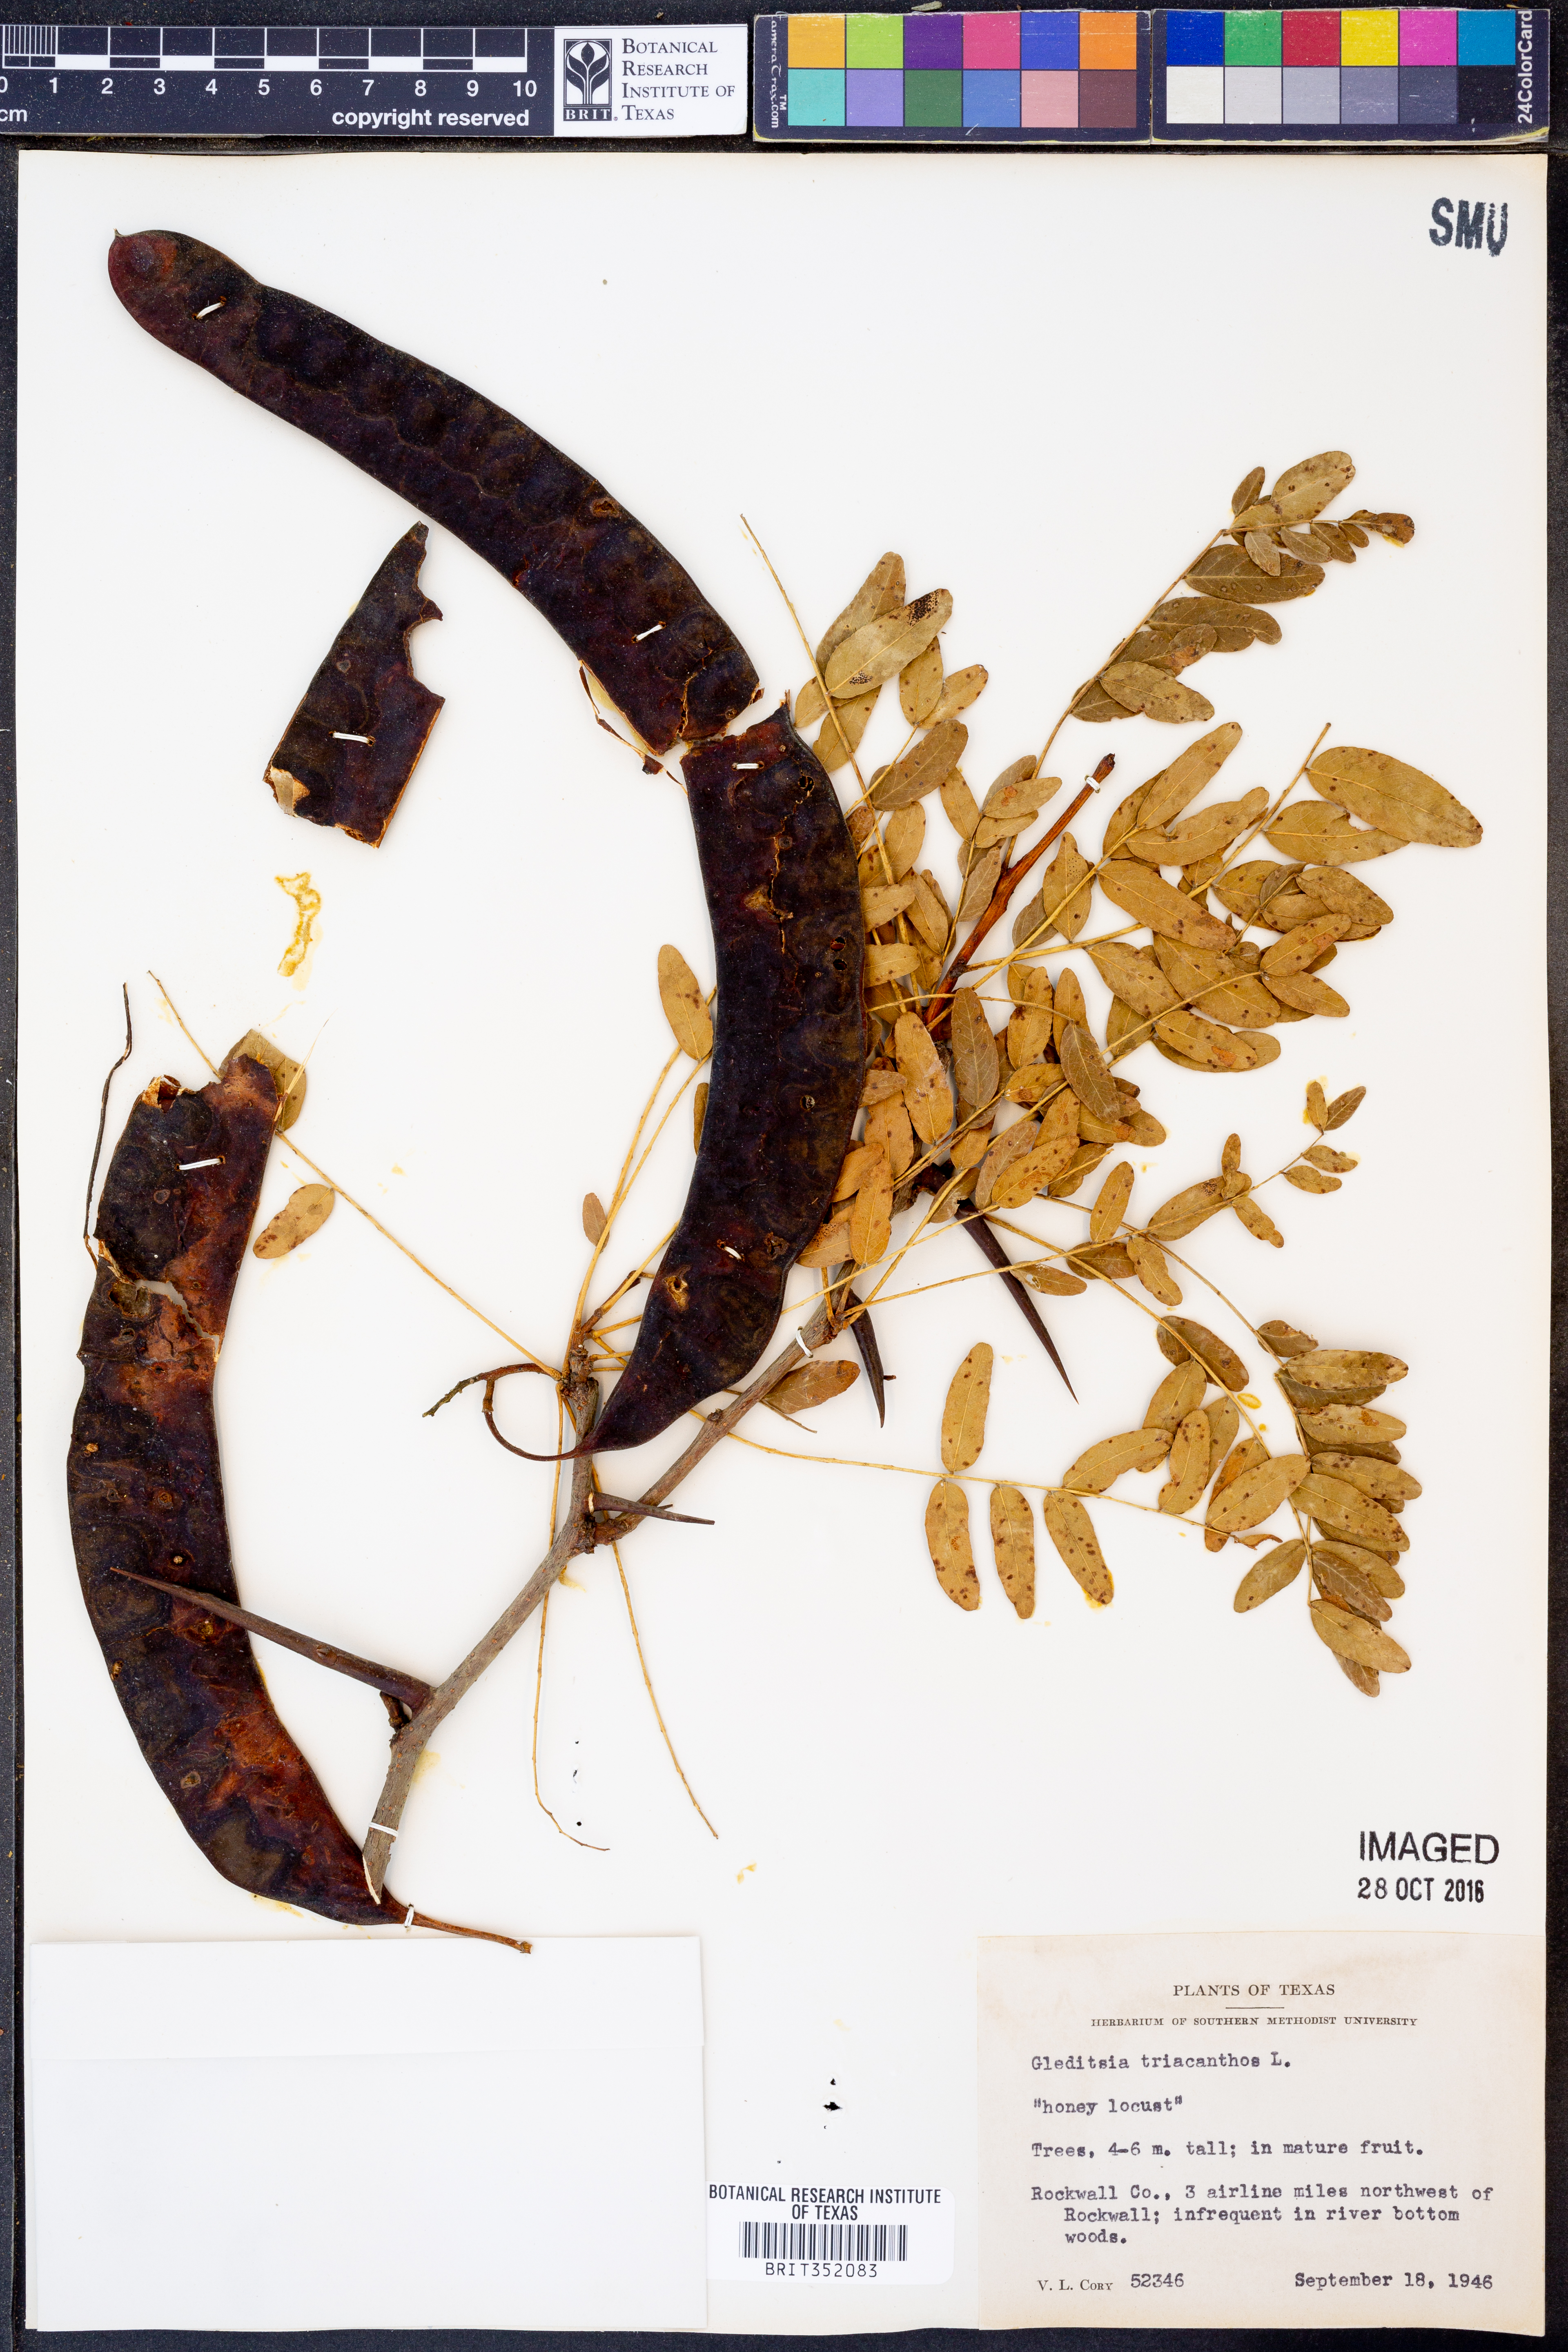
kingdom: Plantae
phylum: Tracheophyta
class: Magnoliopsida
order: Fabales
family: Fabaceae
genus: Gleditsia
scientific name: Gleditsia triacanthos
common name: Common honeylocust
